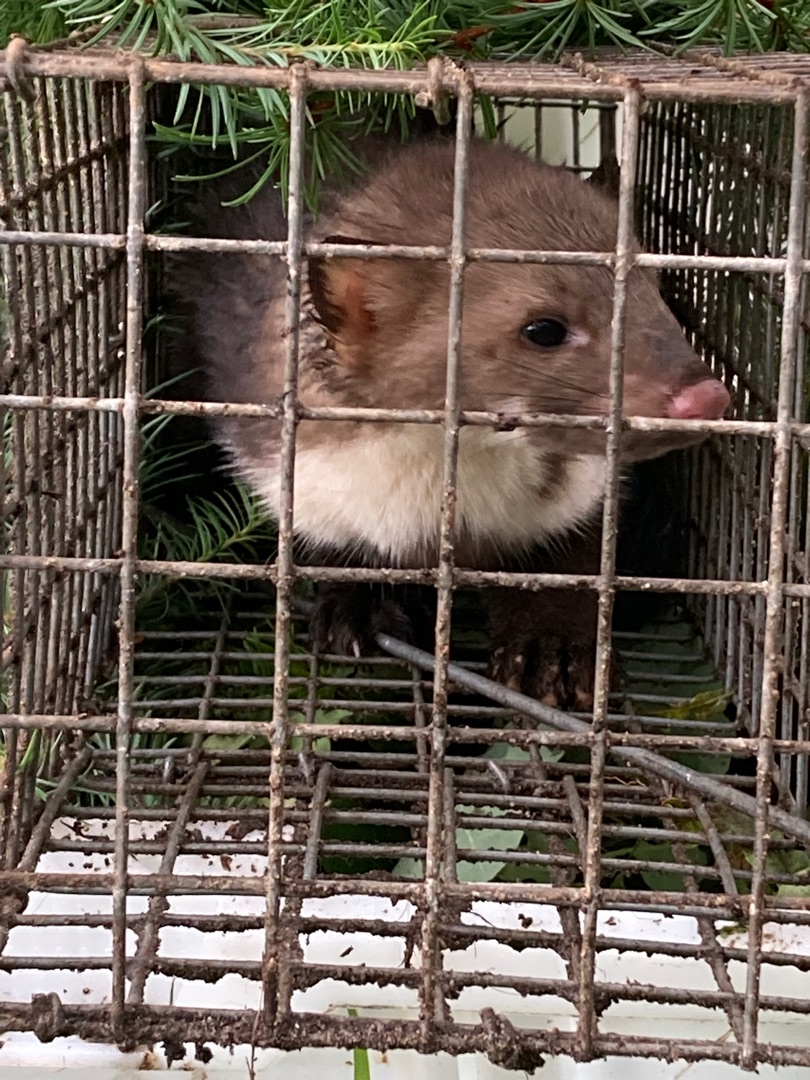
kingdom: Animalia
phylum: Chordata
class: Mammalia
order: Carnivora
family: Mustelidae
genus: Martes
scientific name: Martes foina
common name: Husmår
